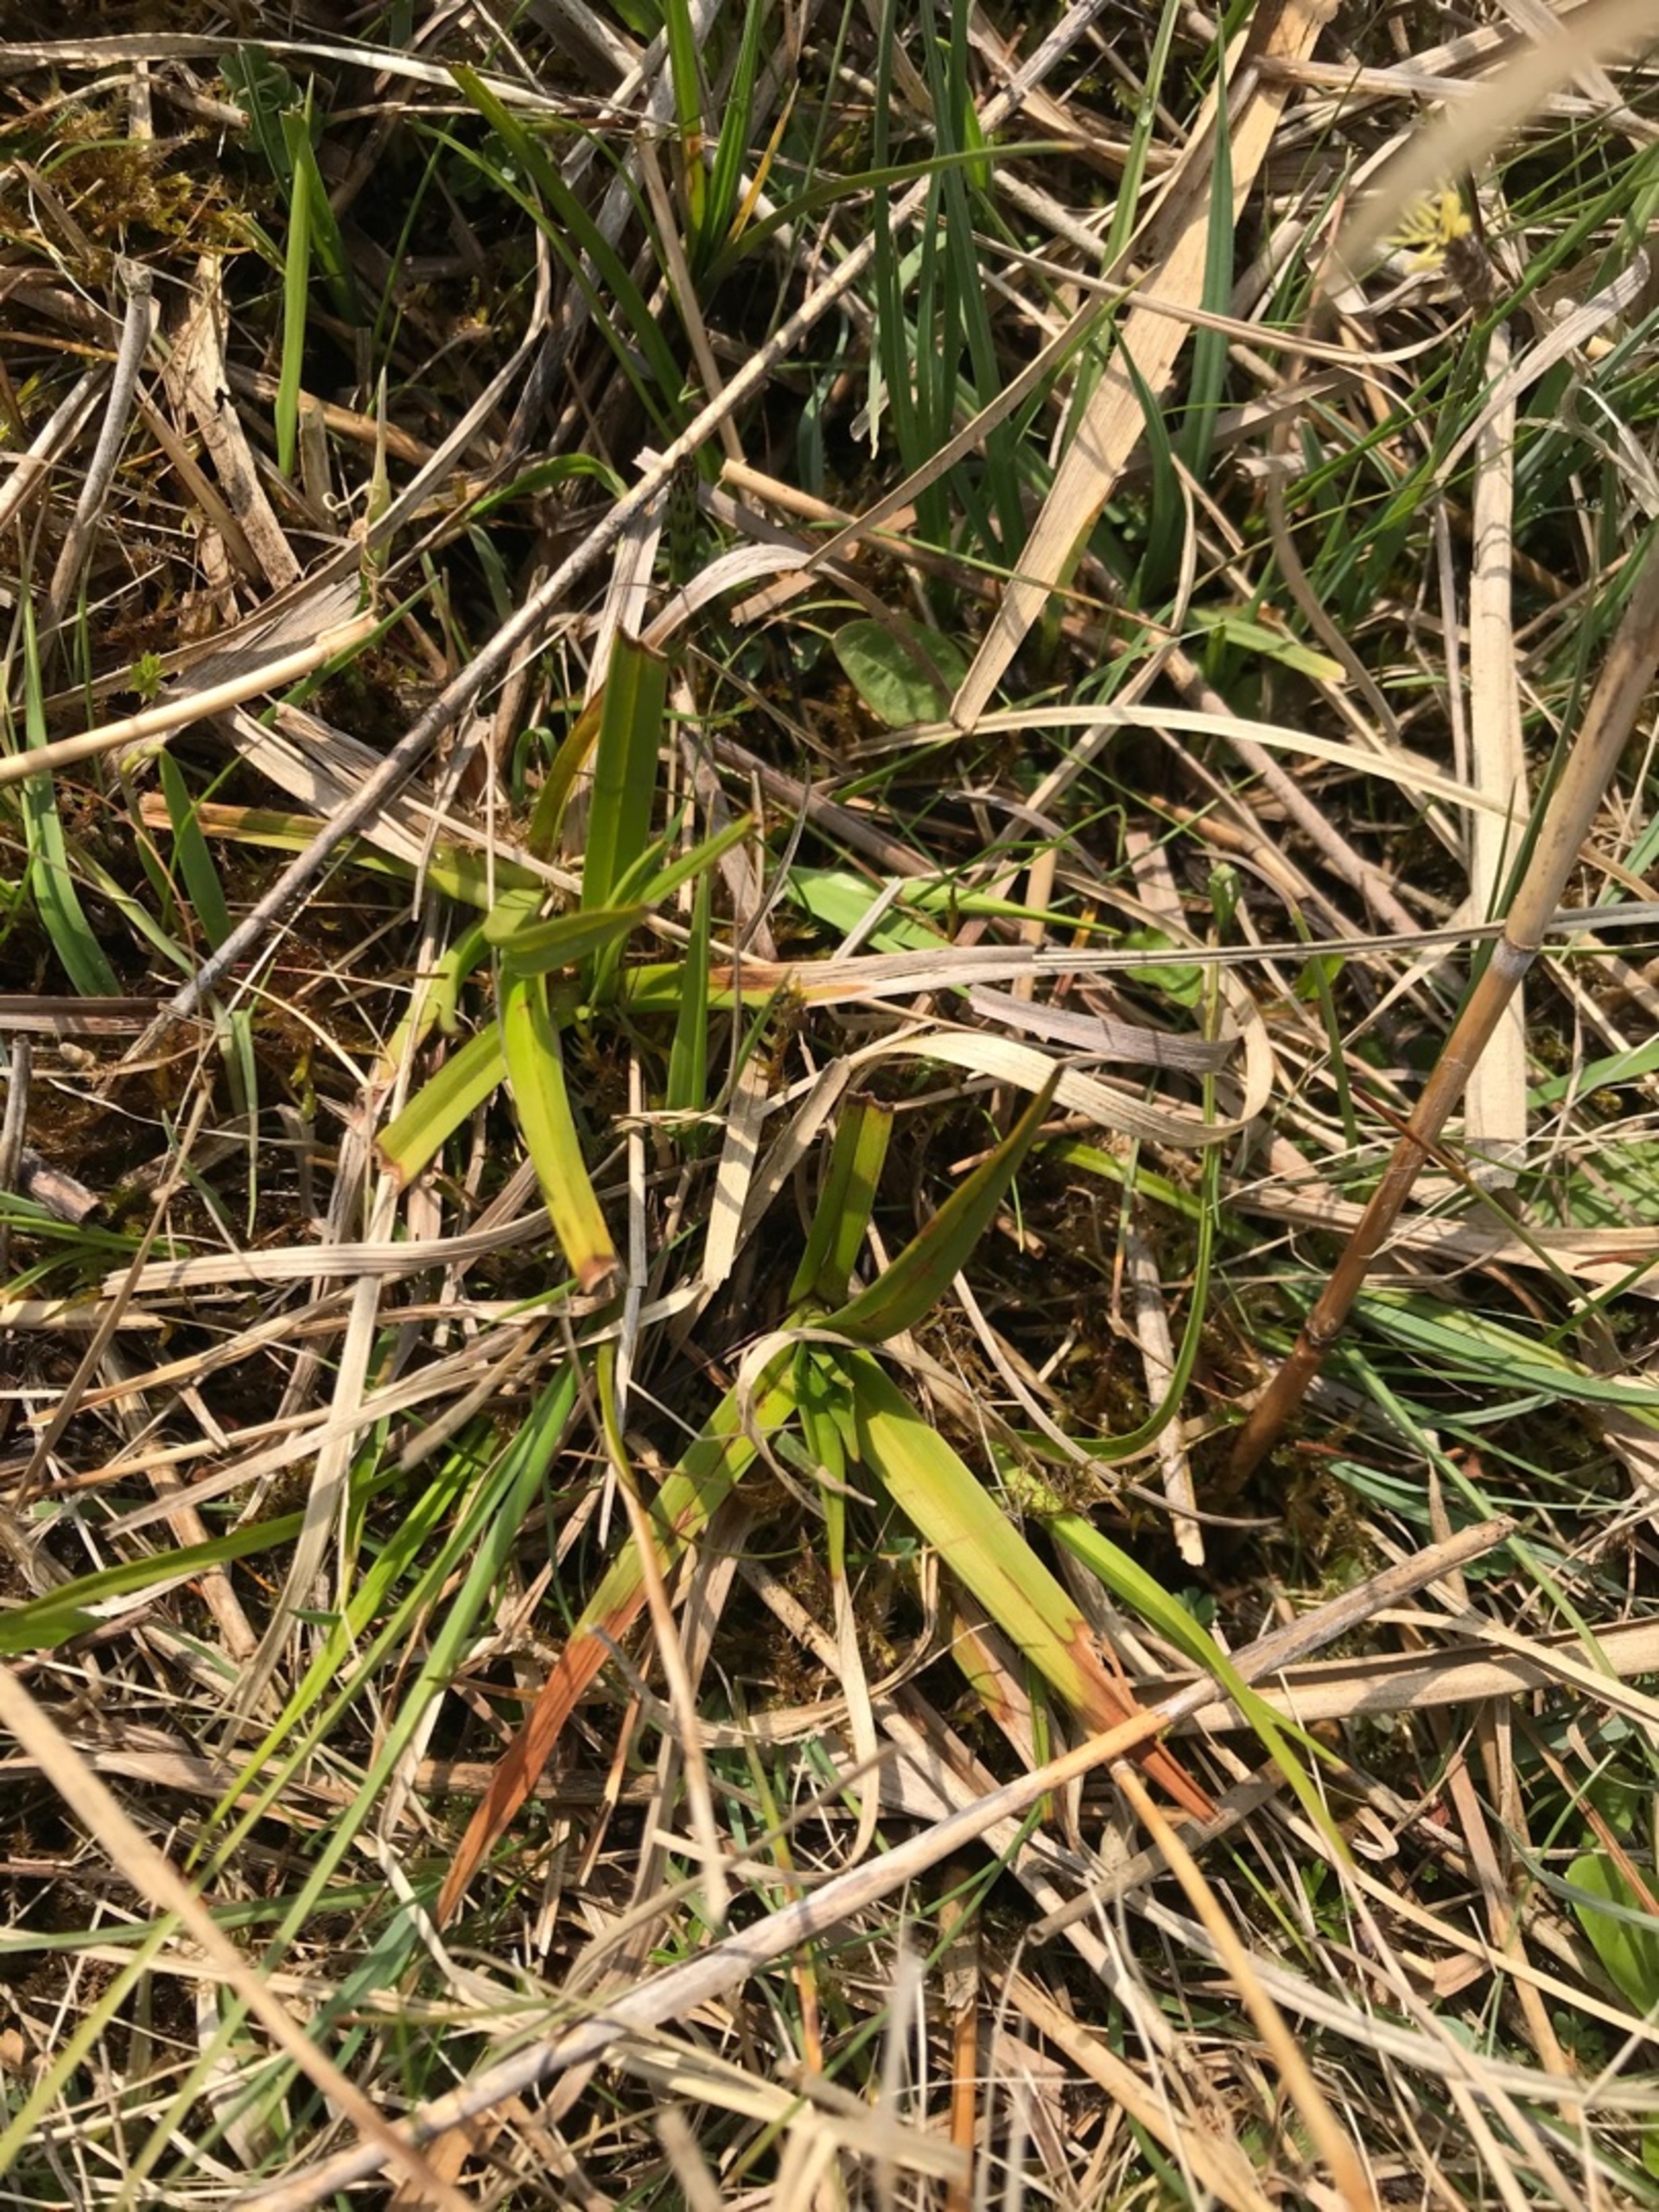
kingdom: Plantae
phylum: Tracheophyta
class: Liliopsida
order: Poales
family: Cyperaceae
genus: Eriophorum
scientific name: Eriophorum latifolium
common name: Bredbladet kæruld
